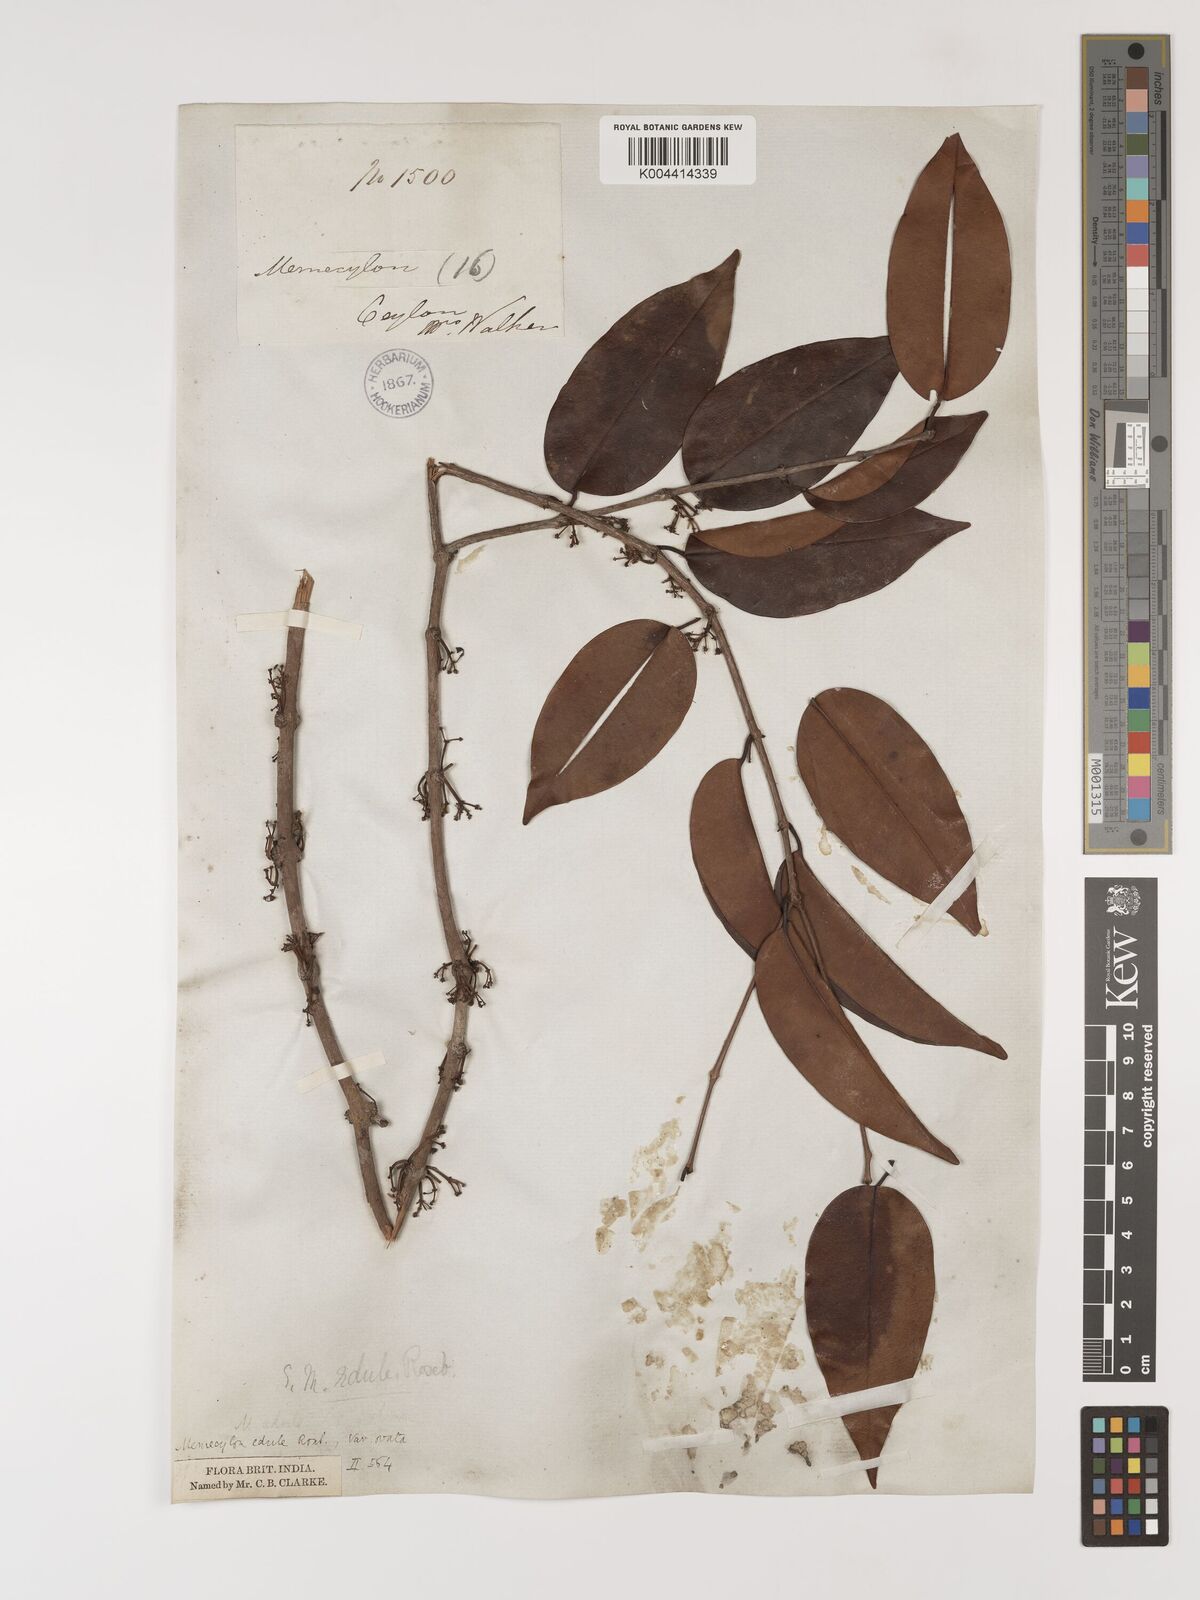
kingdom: Plantae
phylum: Tracheophyta
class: Magnoliopsida
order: Myrtales
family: Melastomataceae
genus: Memecylon
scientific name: Memecylon edule
